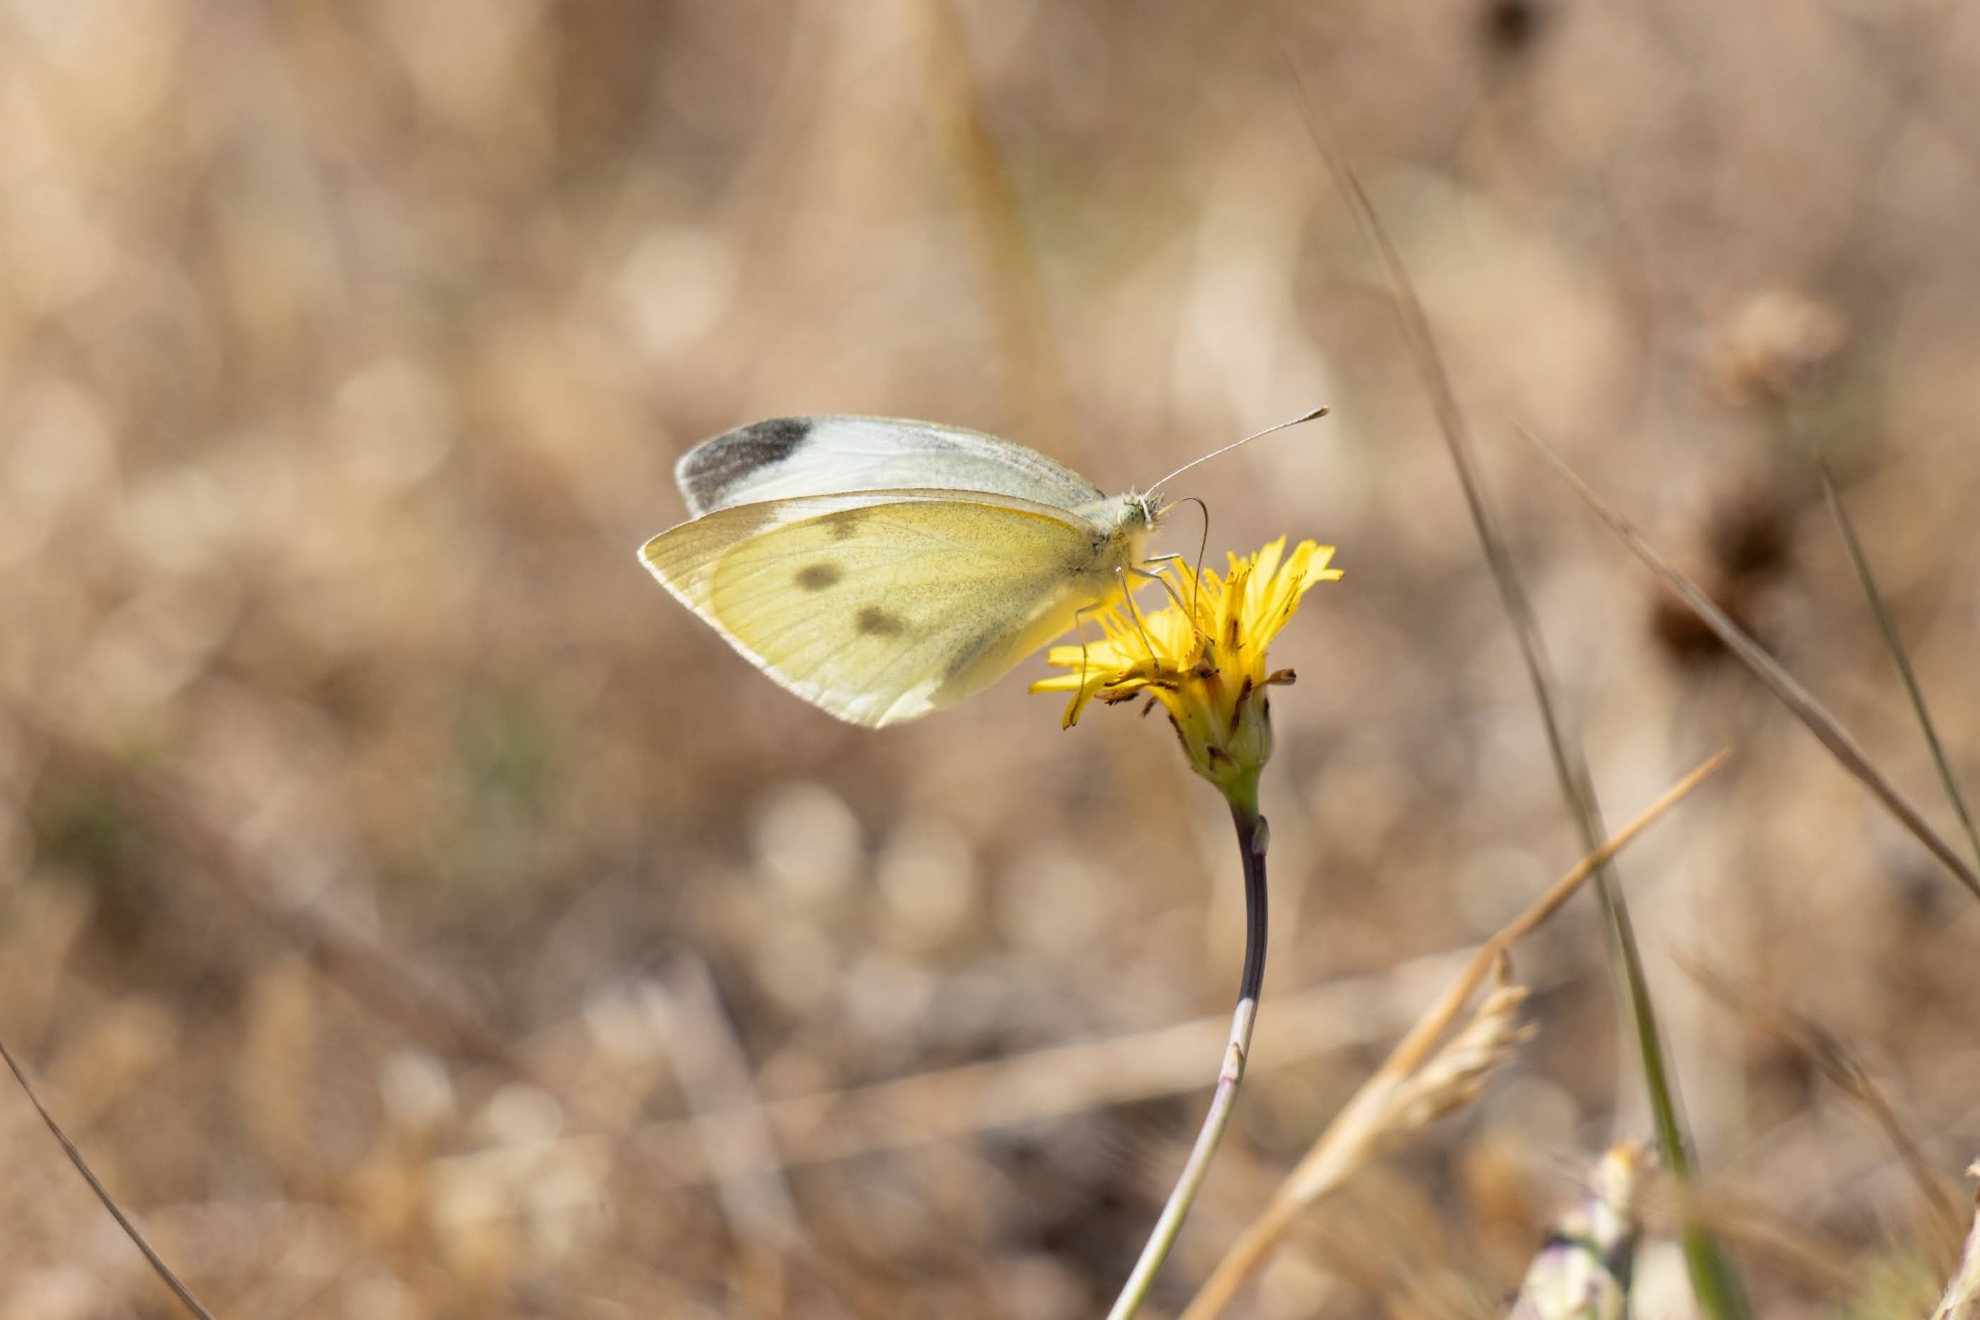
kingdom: Animalia
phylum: Arthropoda
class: Insecta
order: Lepidoptera
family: Pieridae
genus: Pieris
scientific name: Pieris rapae
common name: Lille kålsommerfugl
